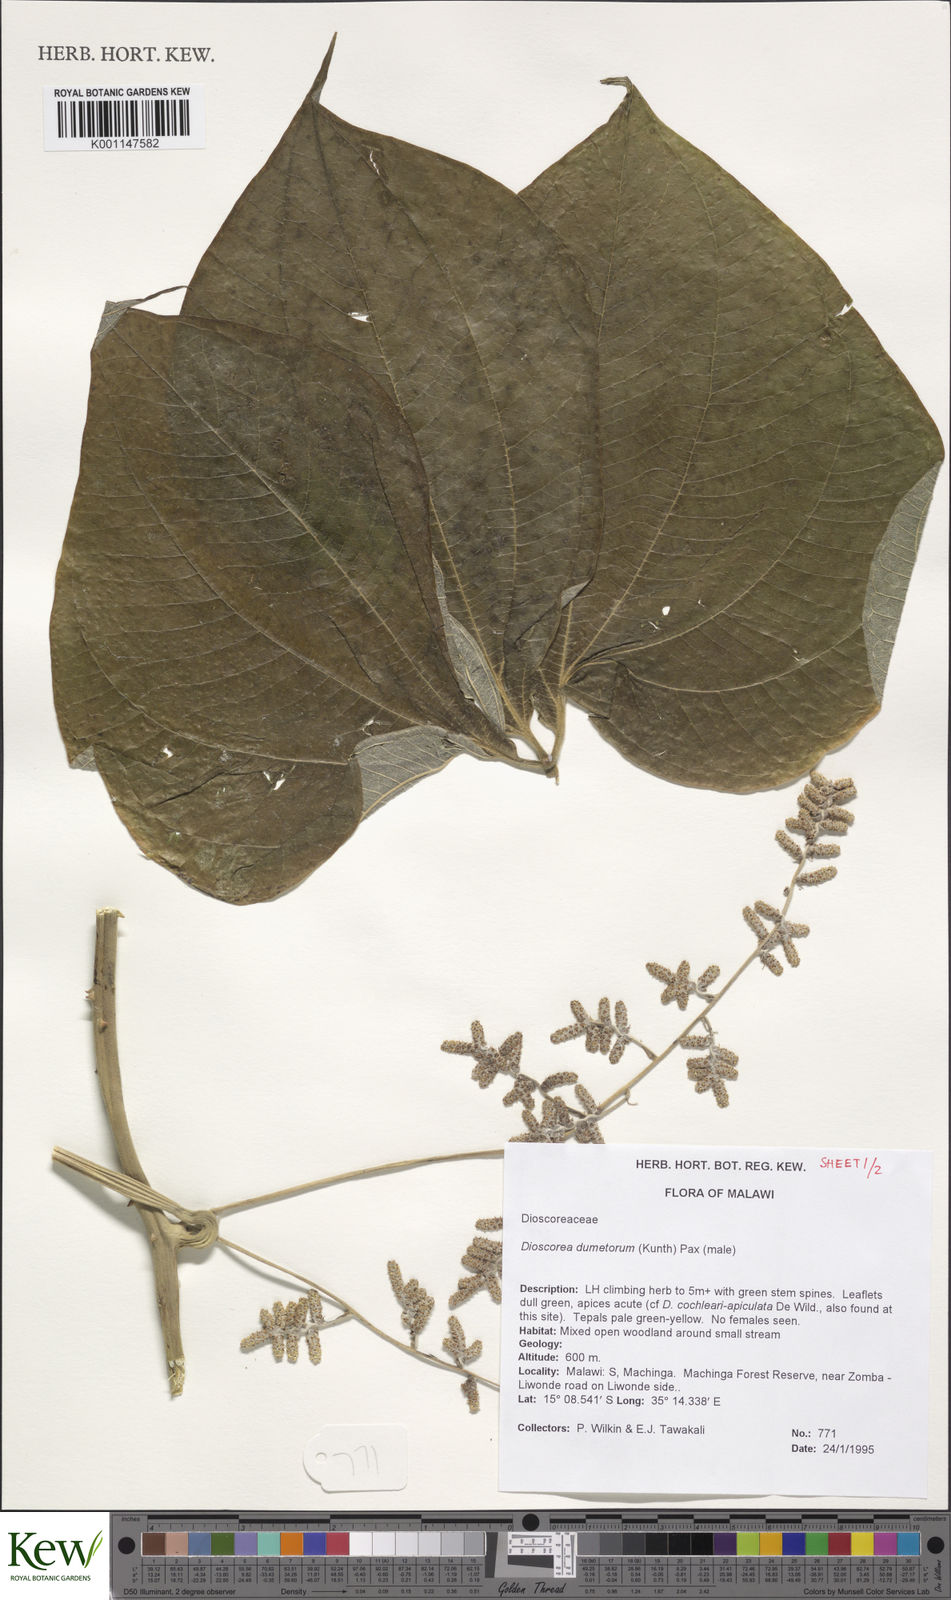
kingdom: Plantae
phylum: Tracheophyta
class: Liliopsida
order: Dioscoreales
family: Dioscoreaceae
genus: Dioscorea
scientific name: Dioscorea dumetorum
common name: African bitter yam
